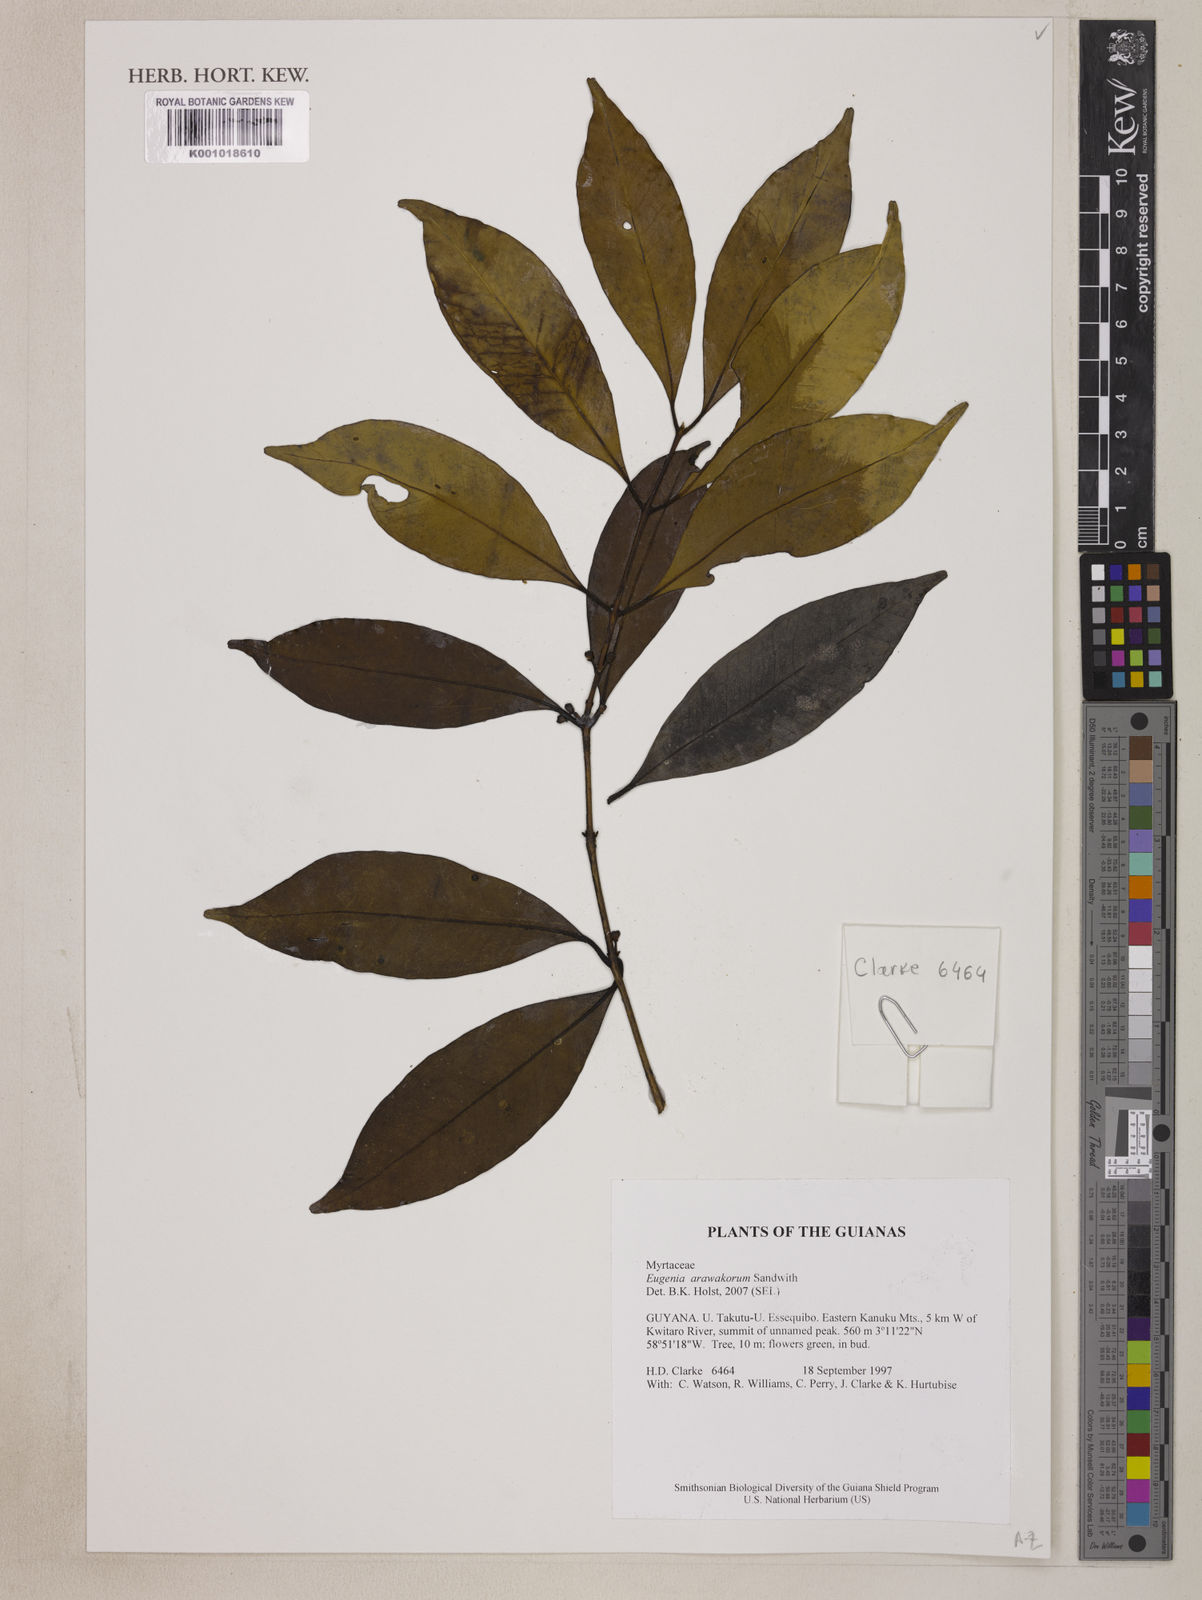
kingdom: Plantae
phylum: Tracheophyta
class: Magnoliopsida
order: Myrtales
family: Myrtaceae
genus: Eugenia
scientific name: Eugenia arawakorum
